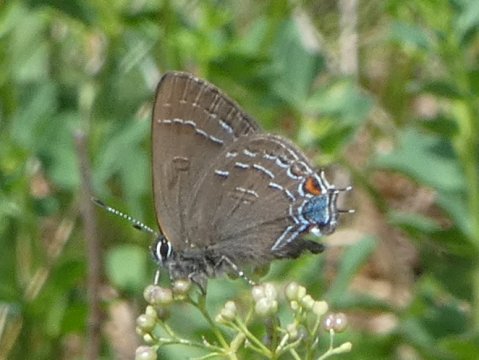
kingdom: Animalia
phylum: Arthropoda
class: Insecta
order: Lepidoptera
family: Lycaenidae
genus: Satyrium
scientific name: Satyrium calanus
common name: Banded Hairstreak
